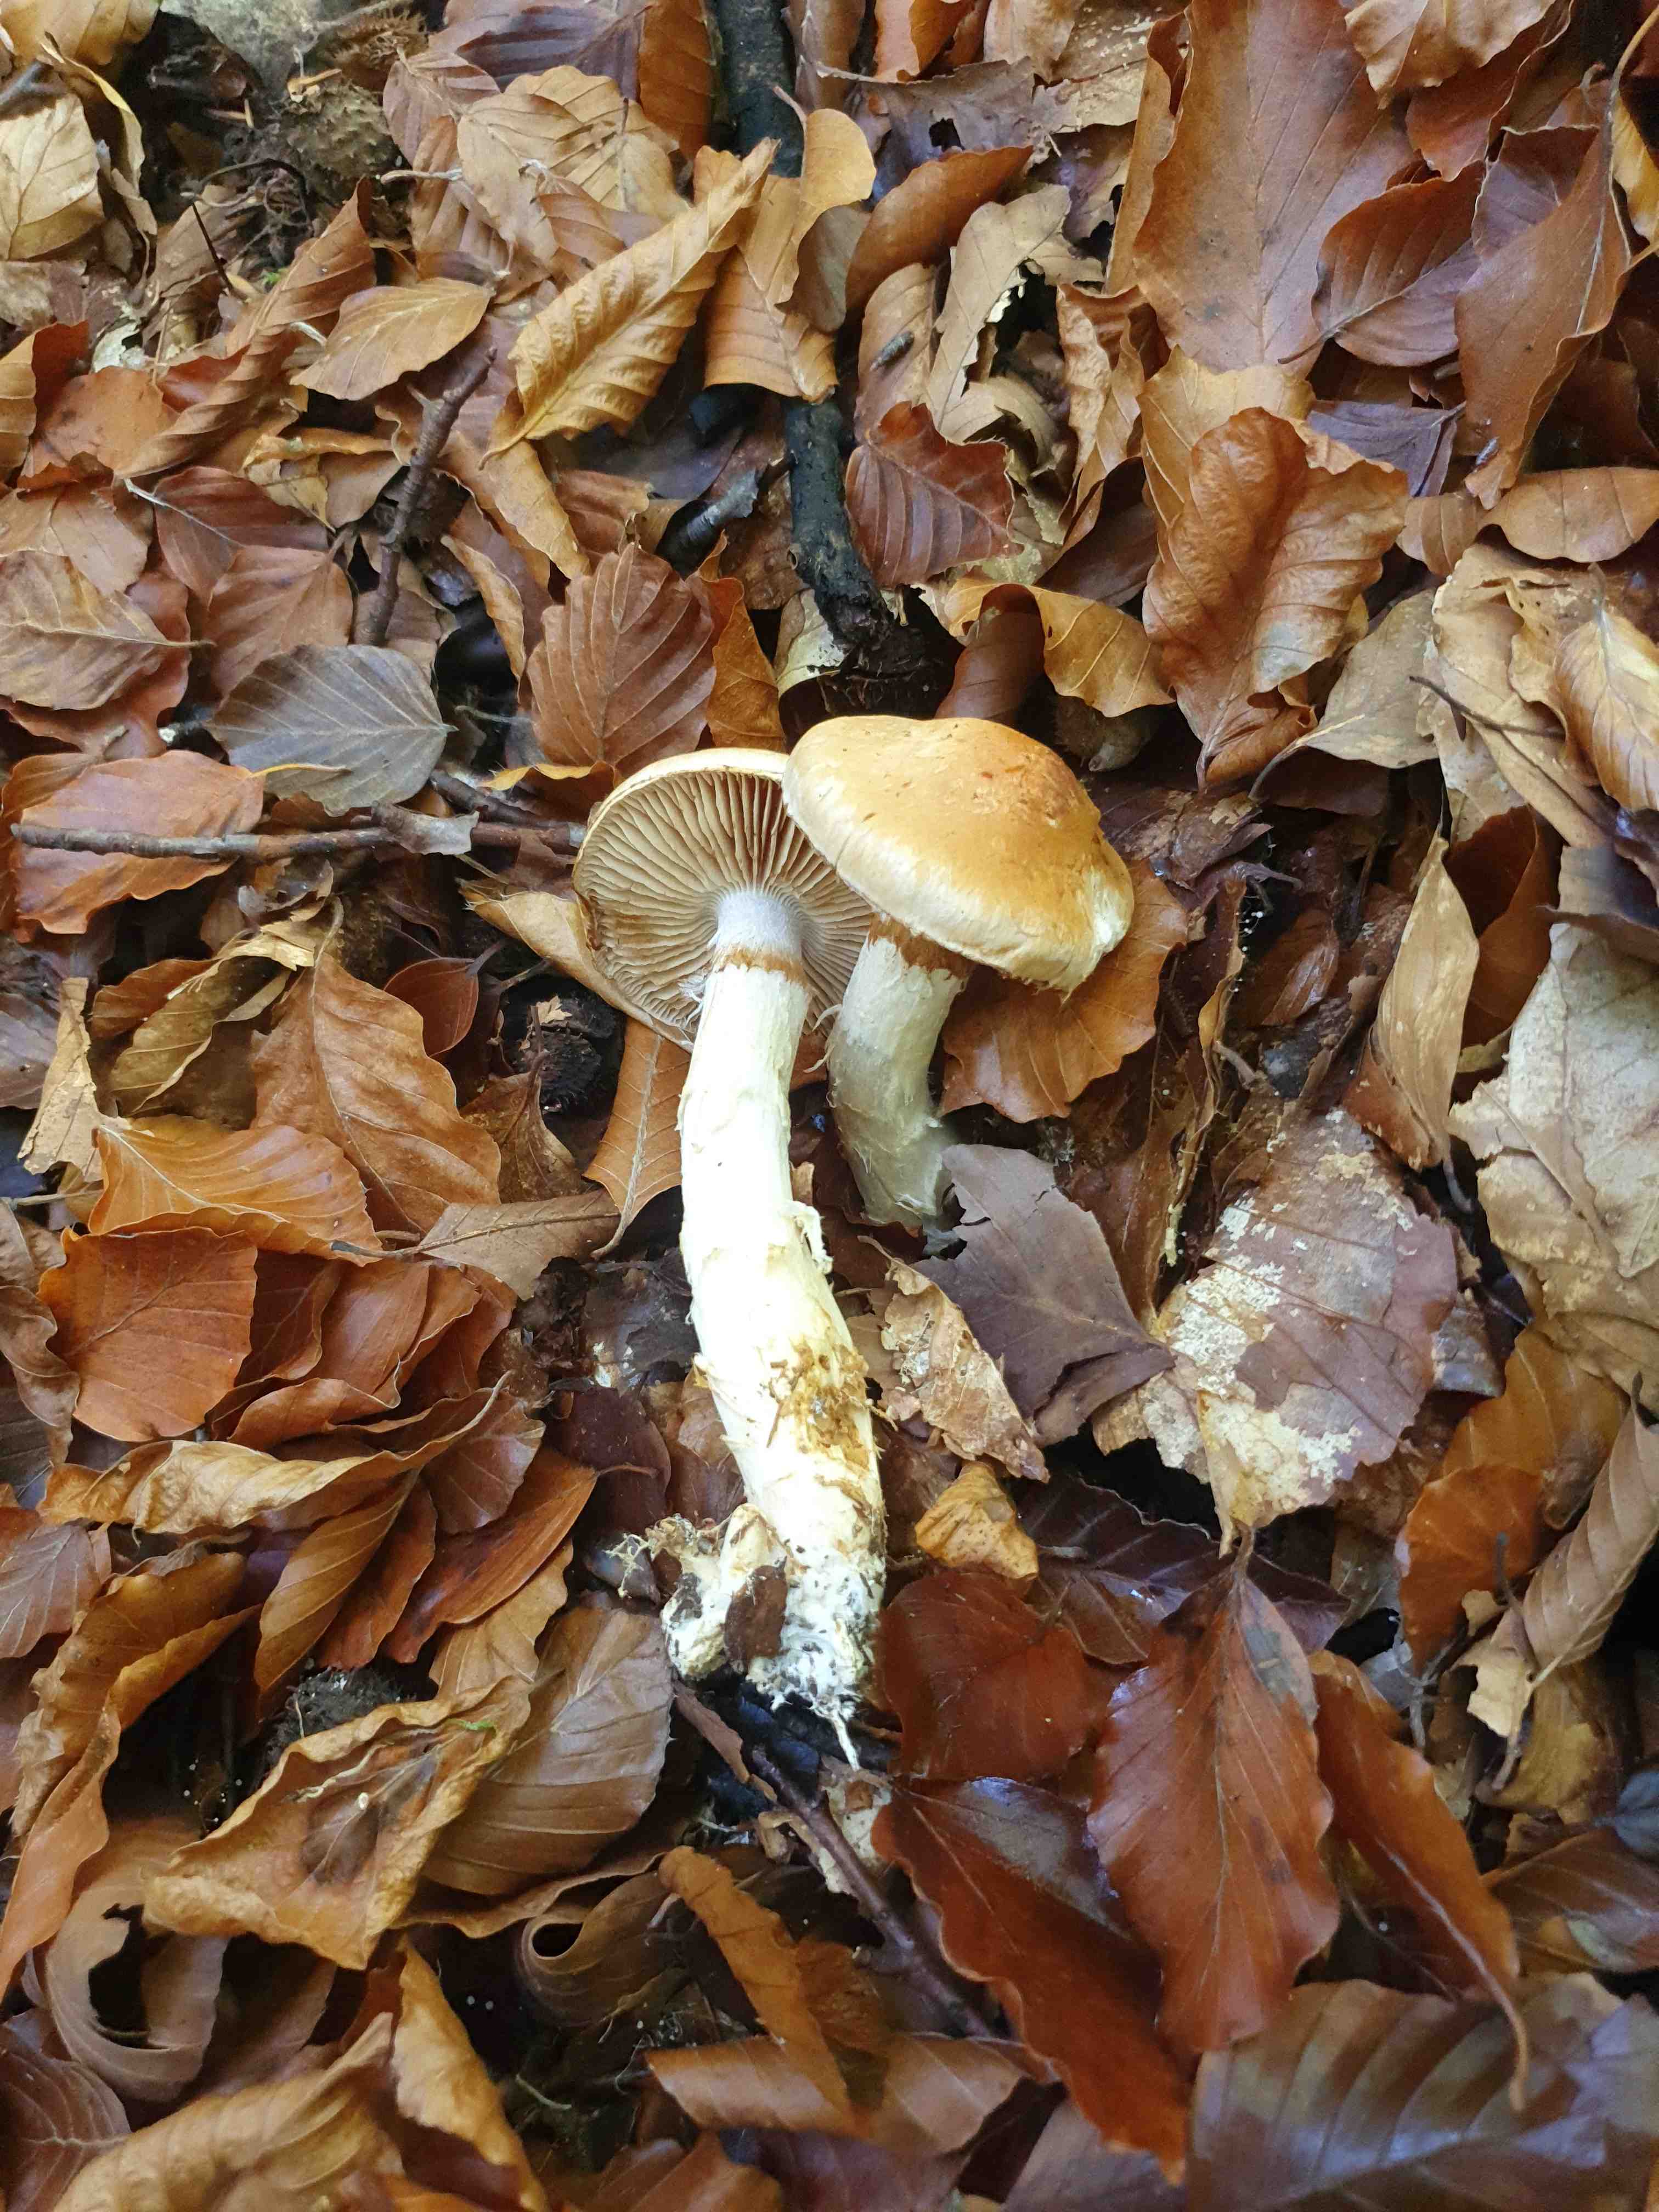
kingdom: Fungi
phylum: Basidiomycota
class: Agaricomycetes
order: Agaricales
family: Cortinariaceae
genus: Phlegmacium
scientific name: Phlegmacium vulpinum
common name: ringbæltet slørhat
